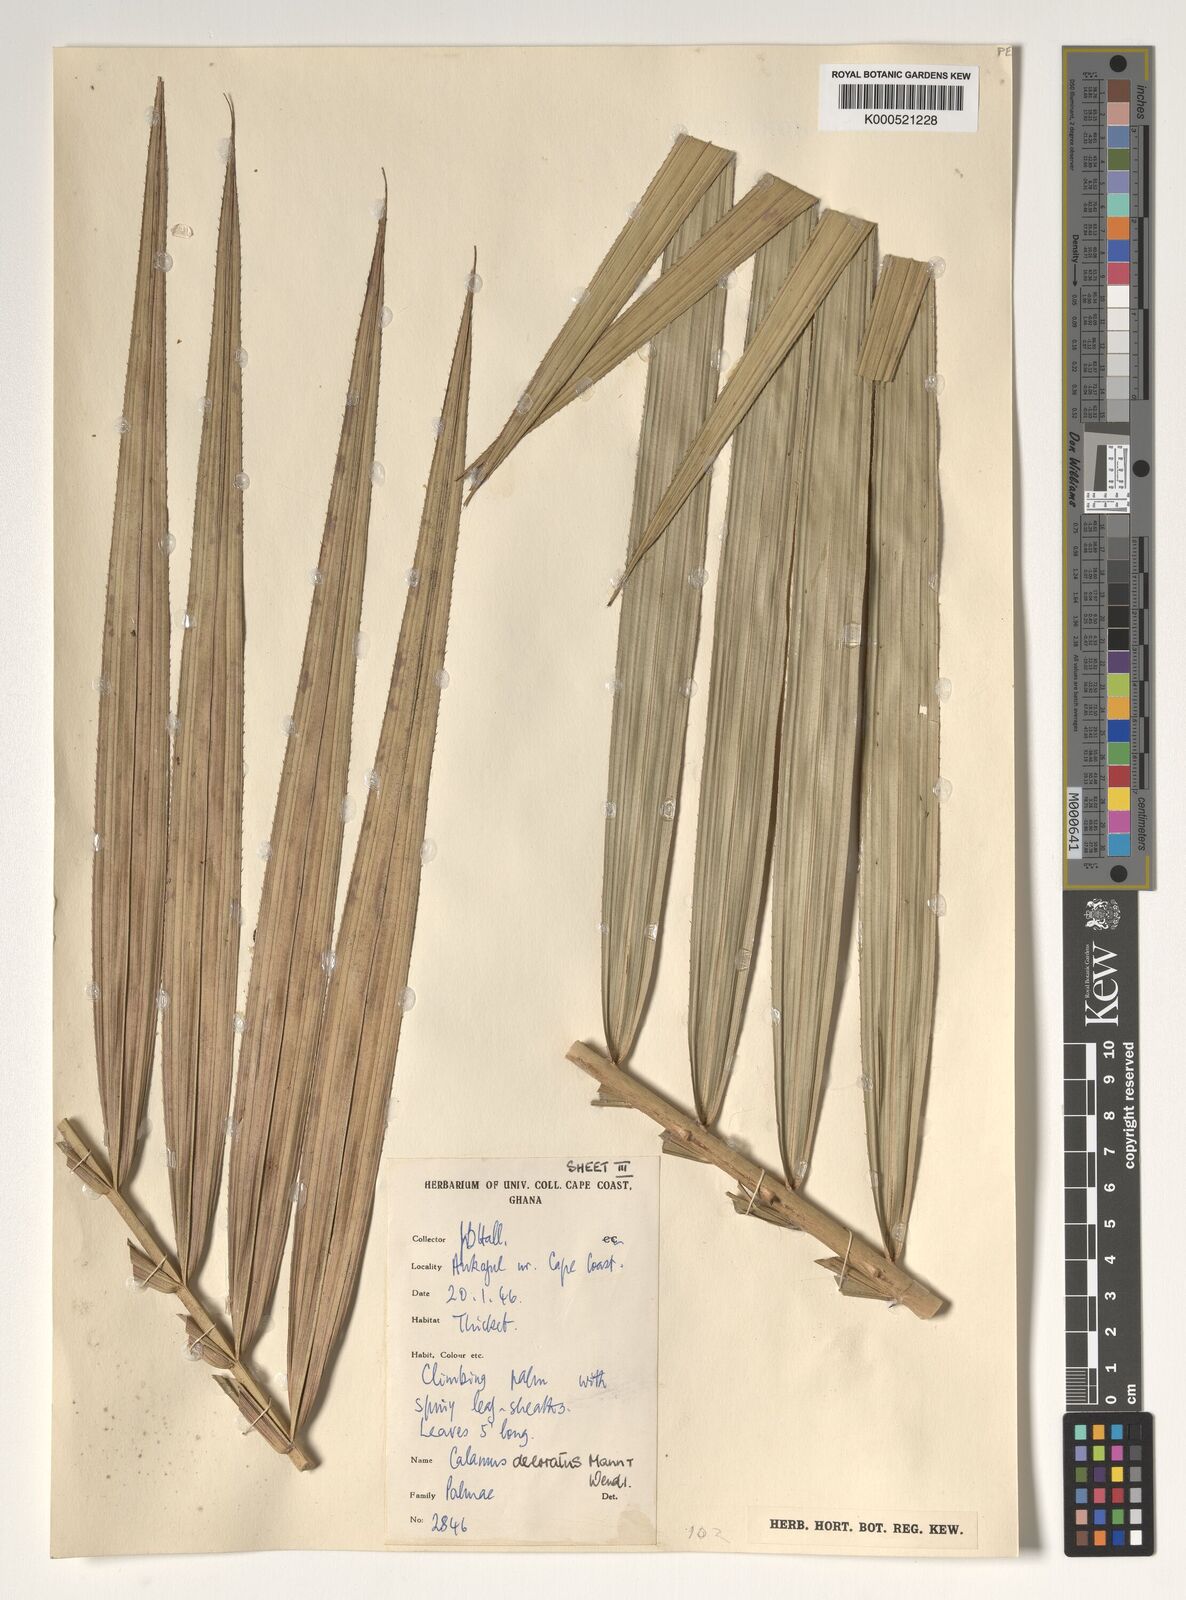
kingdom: Plantae
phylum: Tracheophyta
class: Liliopsida
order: Arecales
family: Arecaceae
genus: Calamus
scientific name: Calamus deerratus
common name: Rattan
